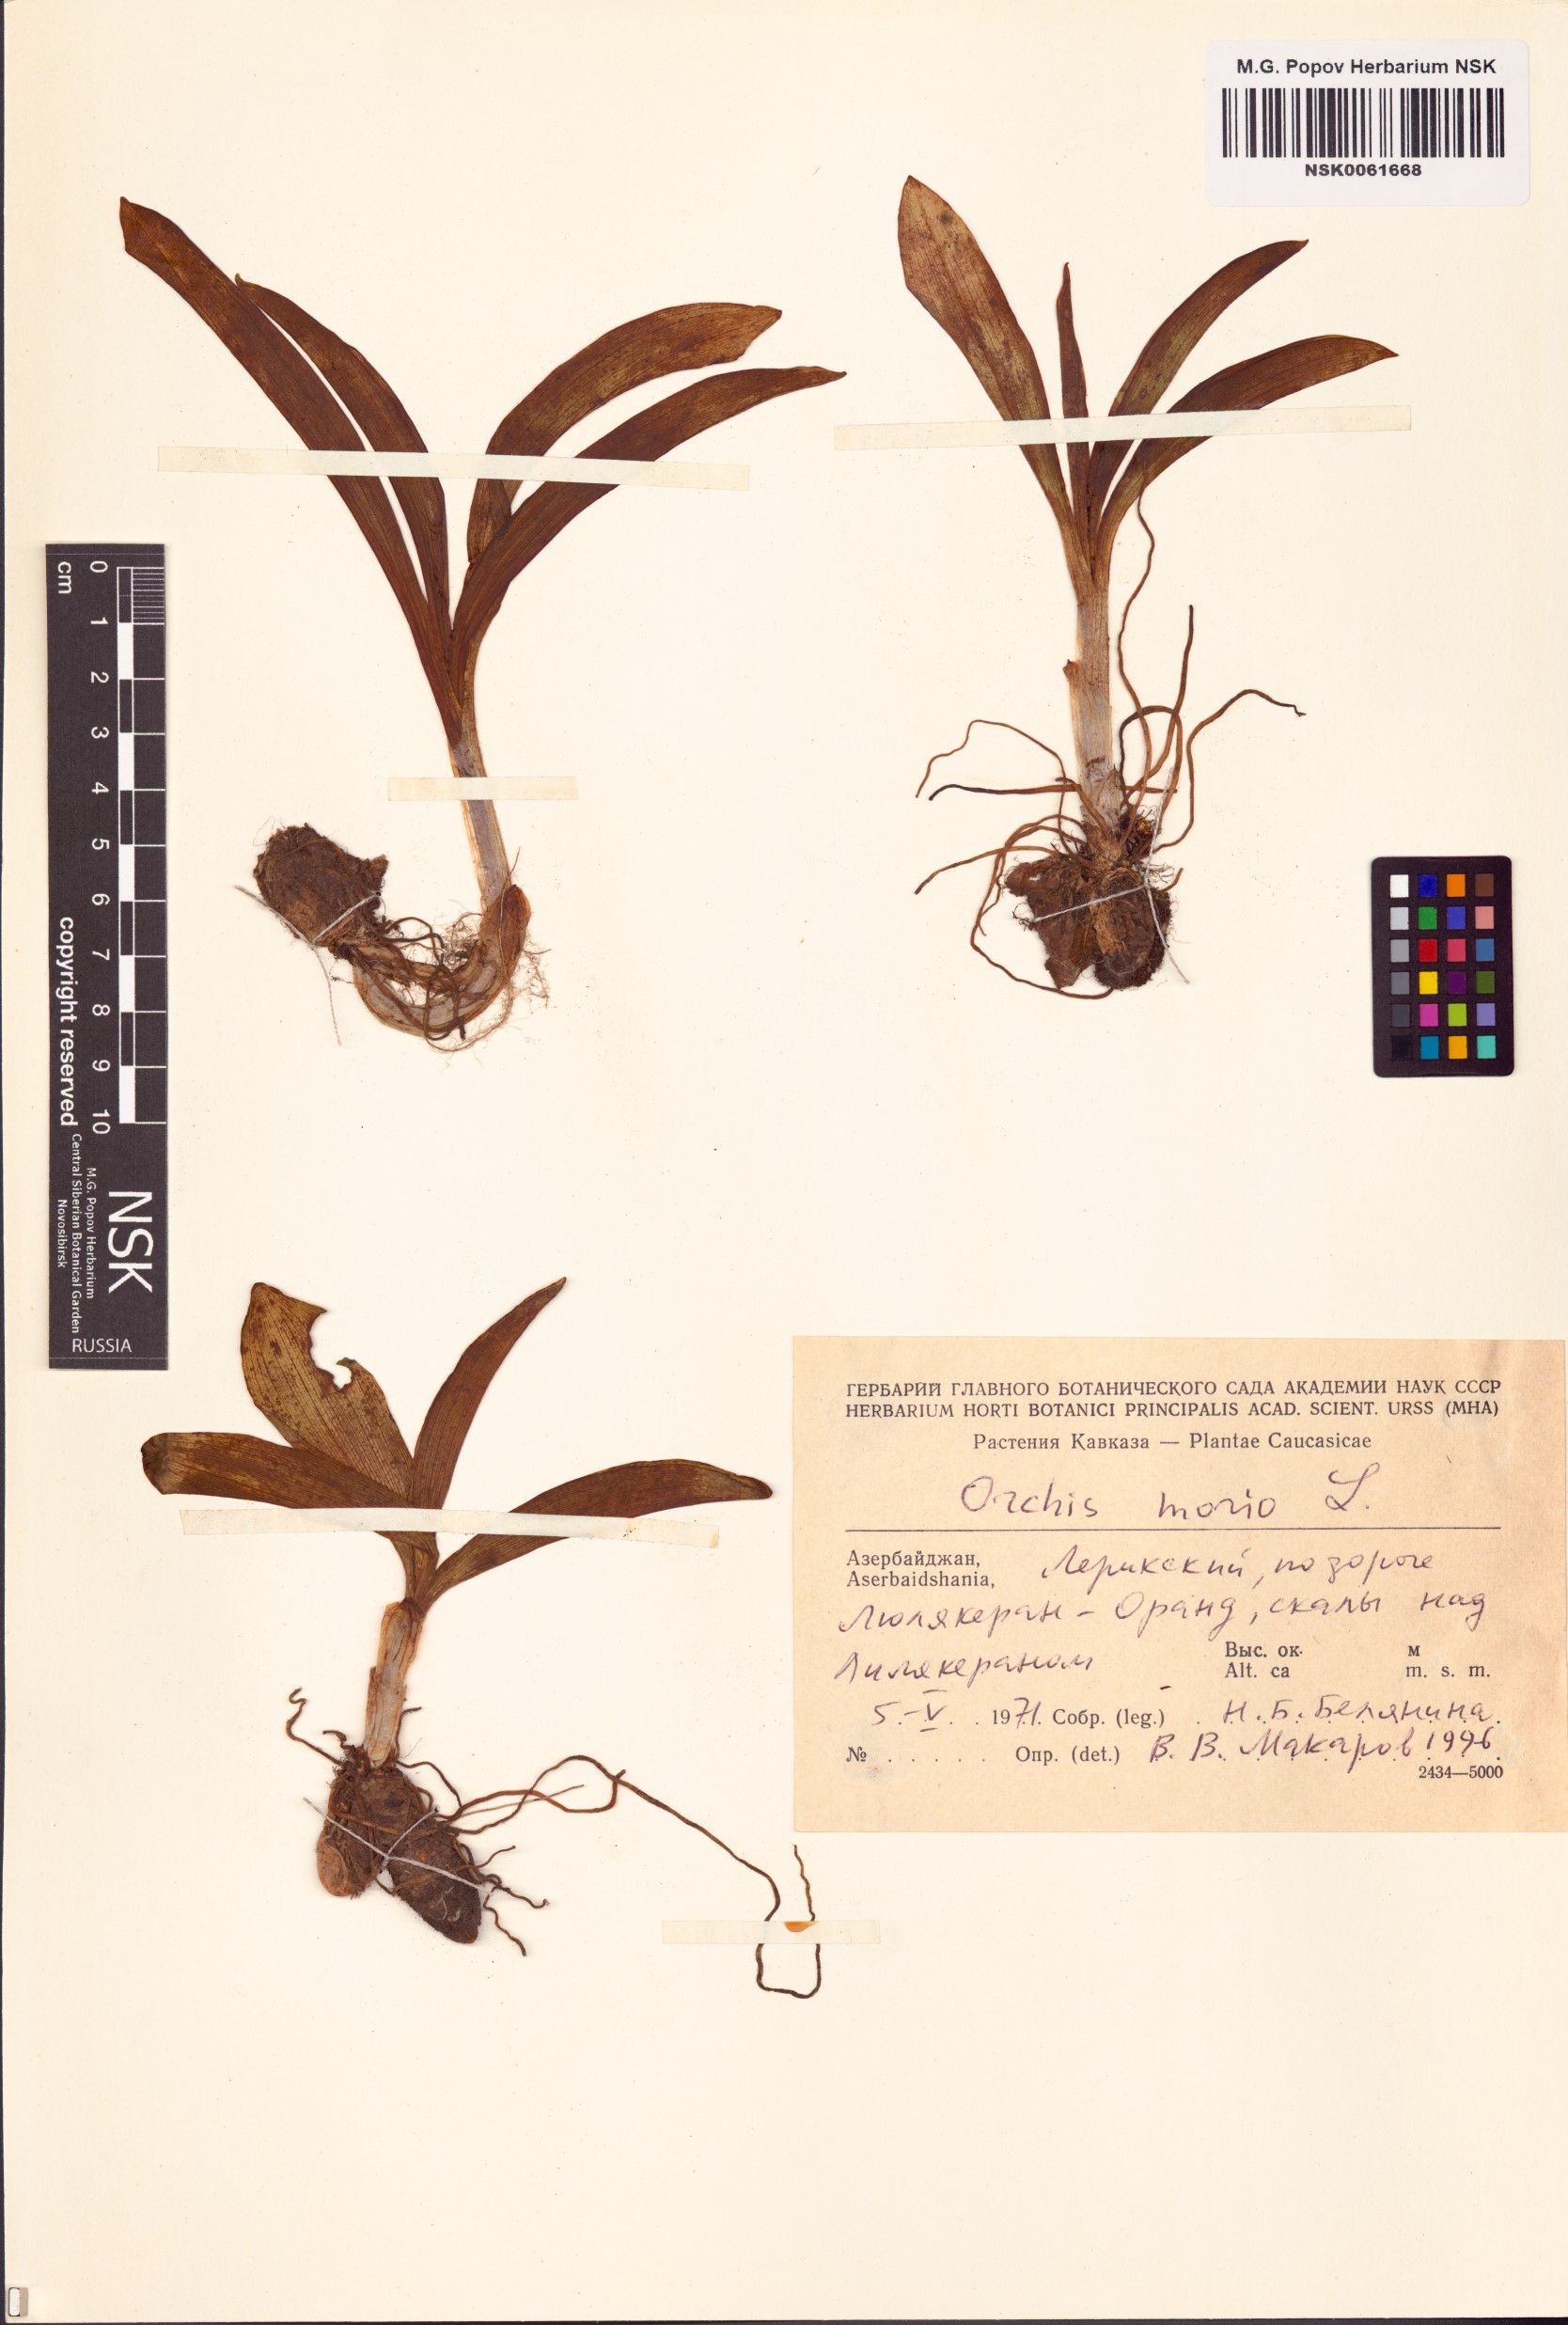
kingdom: Plantae
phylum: Tracheophyta
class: Liliopsida
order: Asparagales
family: Orchidaceae
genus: Anacamptis
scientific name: Anacamptis morio
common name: Green-winged orchid
